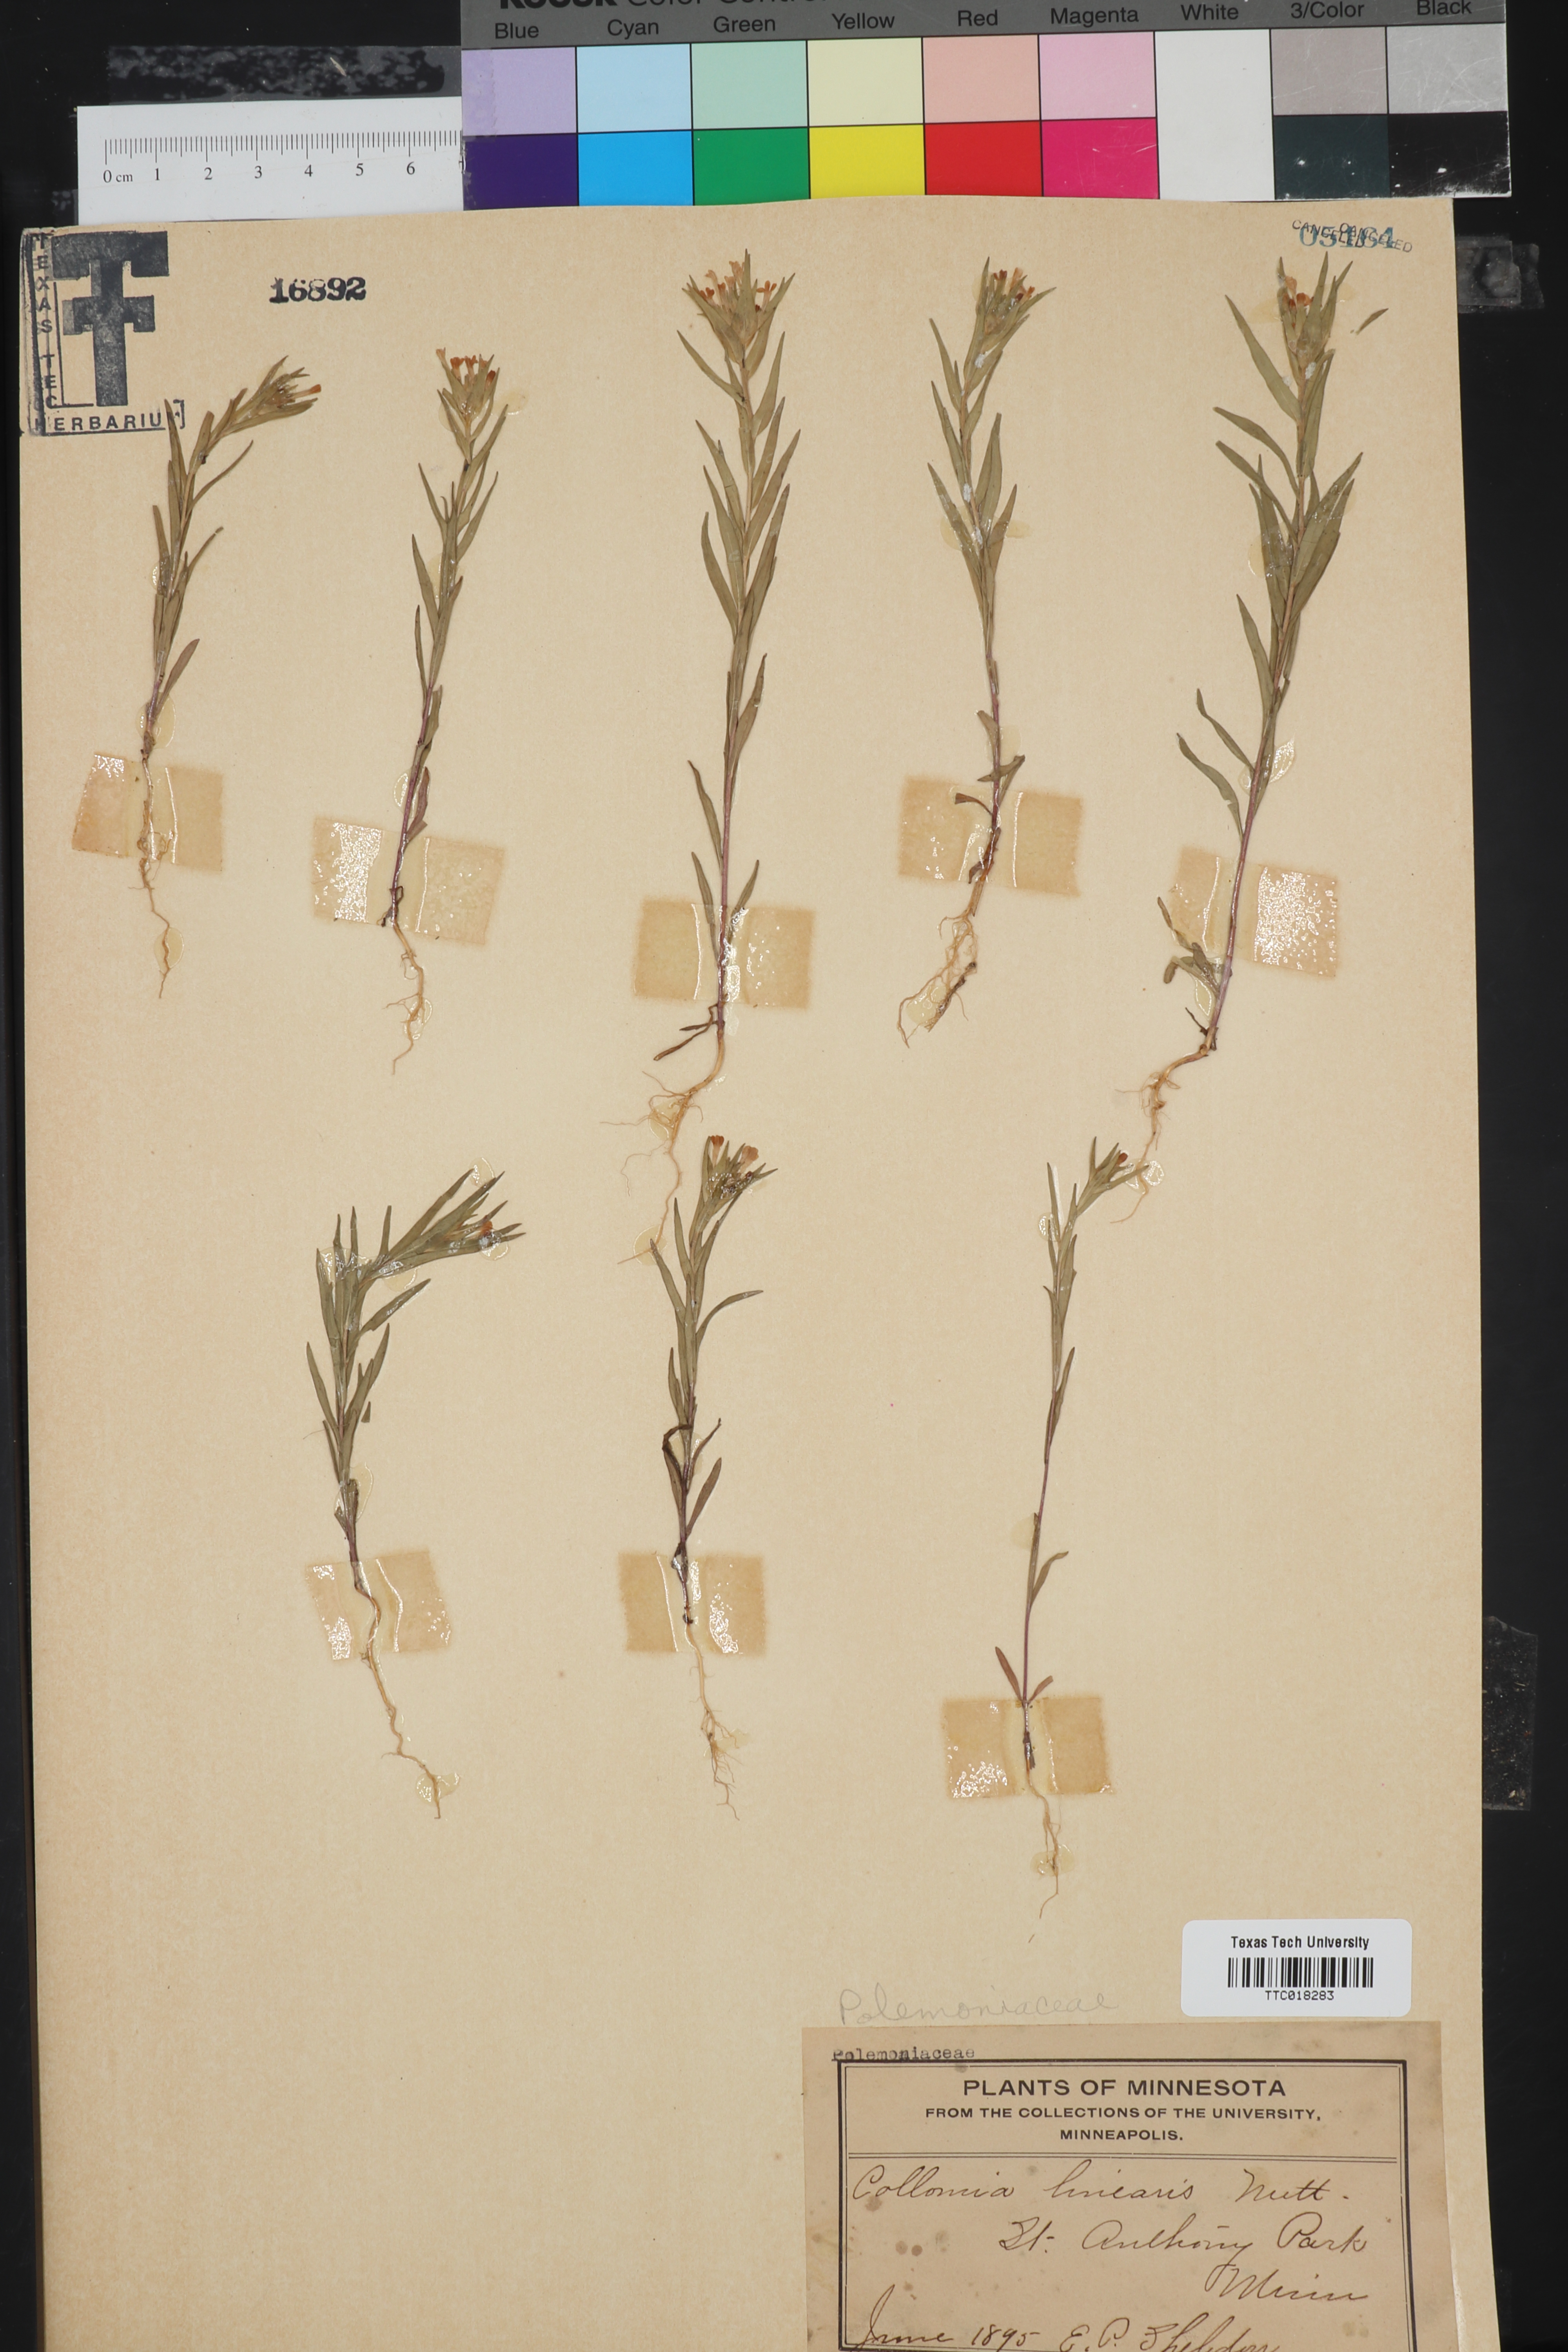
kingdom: Plantae
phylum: Tracheophyta
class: Magnoliopsida
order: Ericales
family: Polemoniaceae
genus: Collomia
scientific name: Collomia linearis
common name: Tiny trumpet
